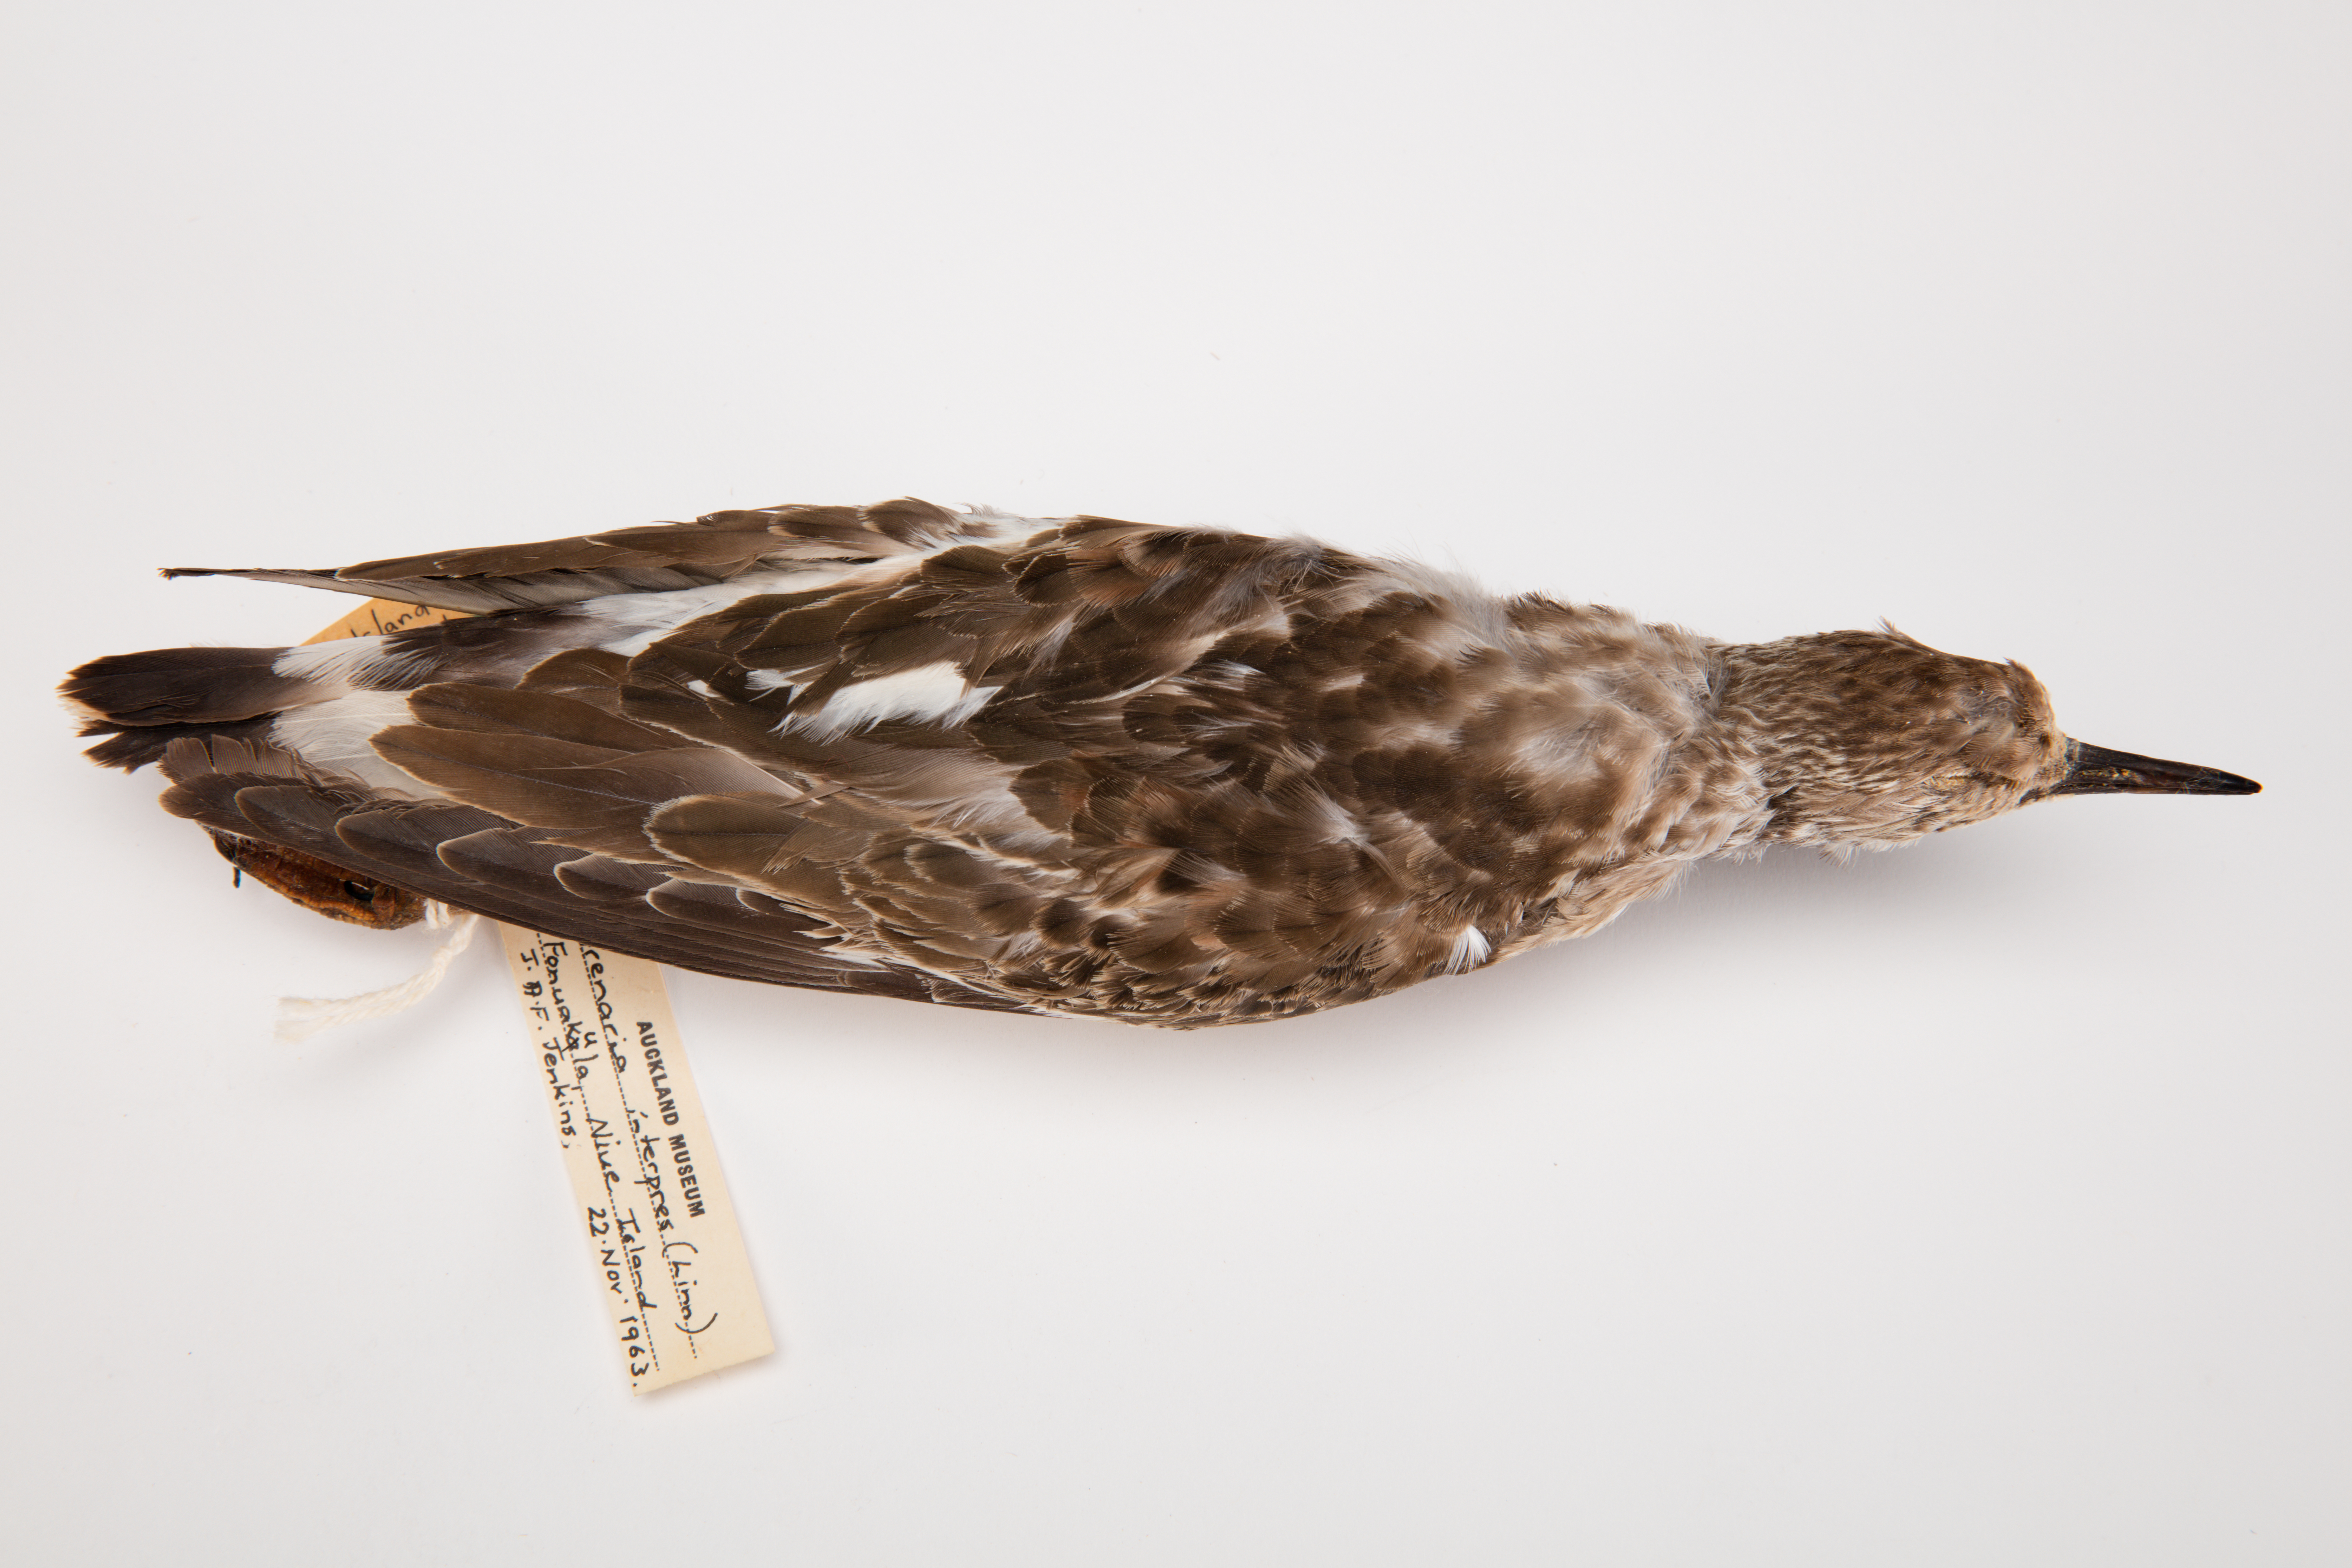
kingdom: Animalia
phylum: Chordata
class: Aves
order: Charadriiformes
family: Scolopacidae
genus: Arenaria
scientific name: Arenaria interpres
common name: Ruddy turnstone
